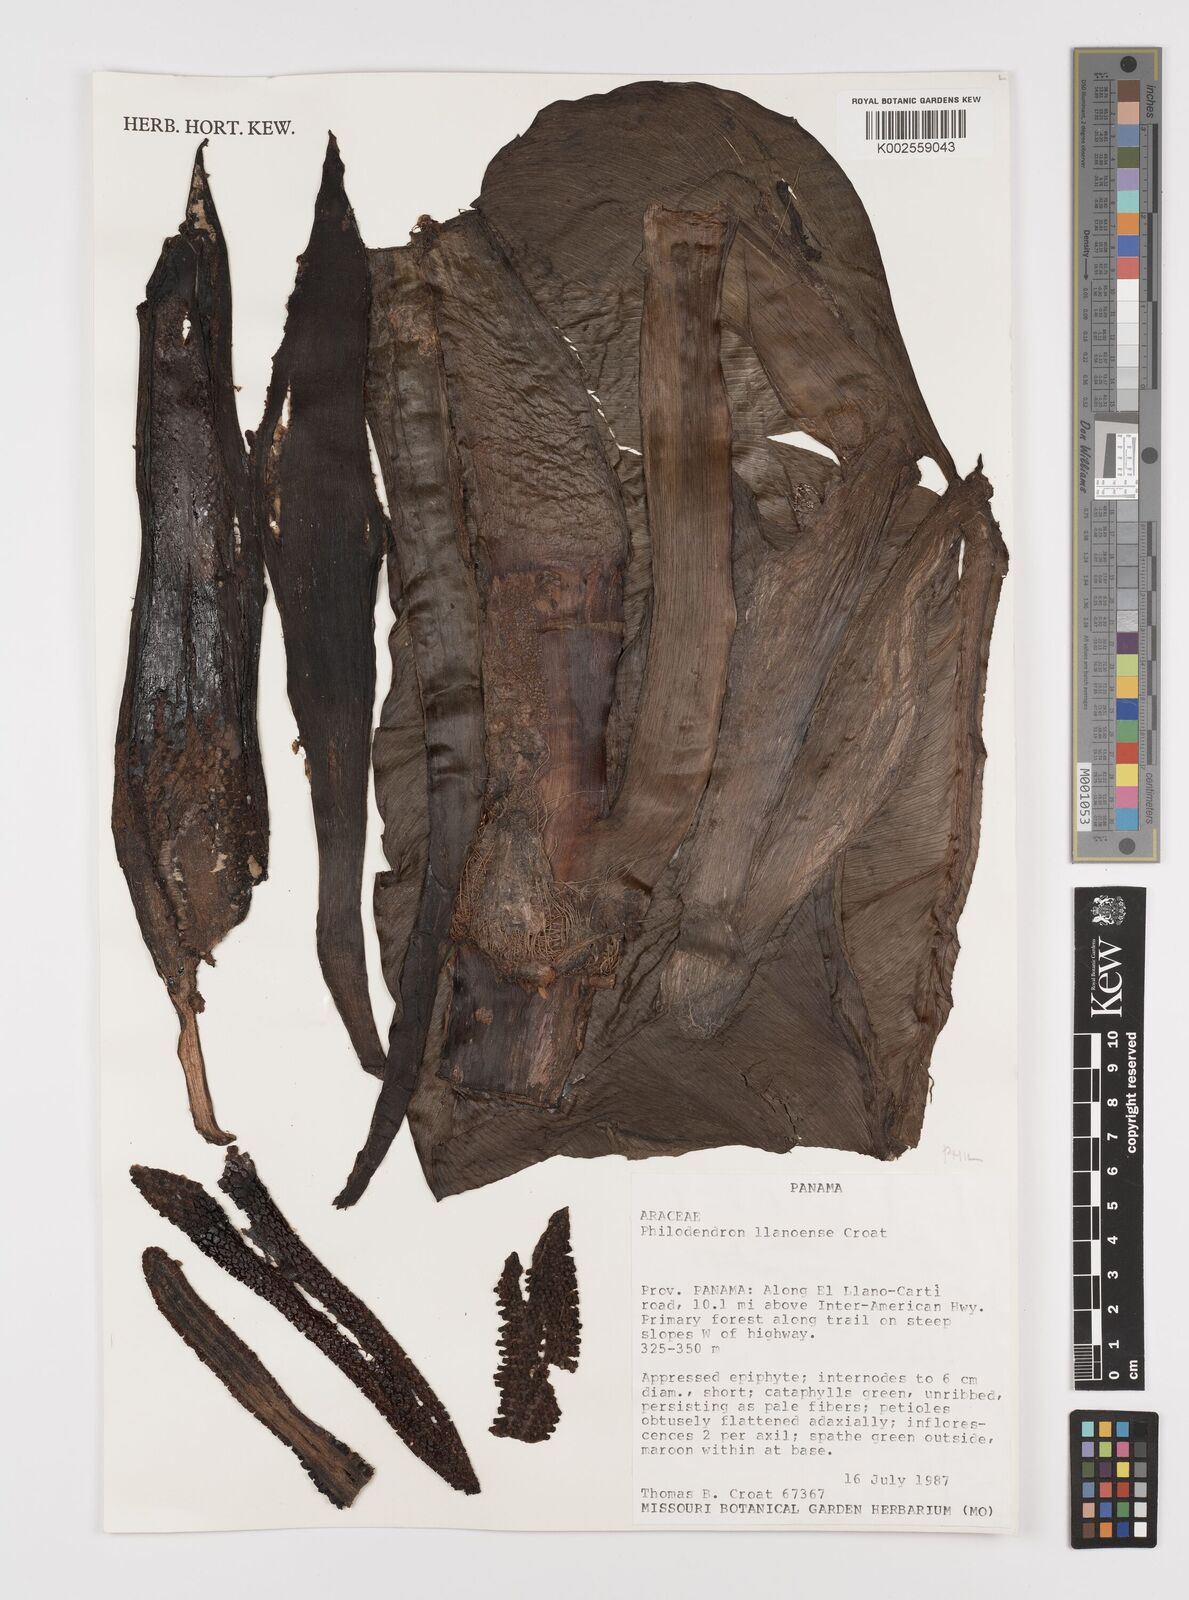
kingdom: Plantae
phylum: Tracheophyta
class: Liliopsida
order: Alismatales
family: Araceae
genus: Philodendron
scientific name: Philodendron llanense
